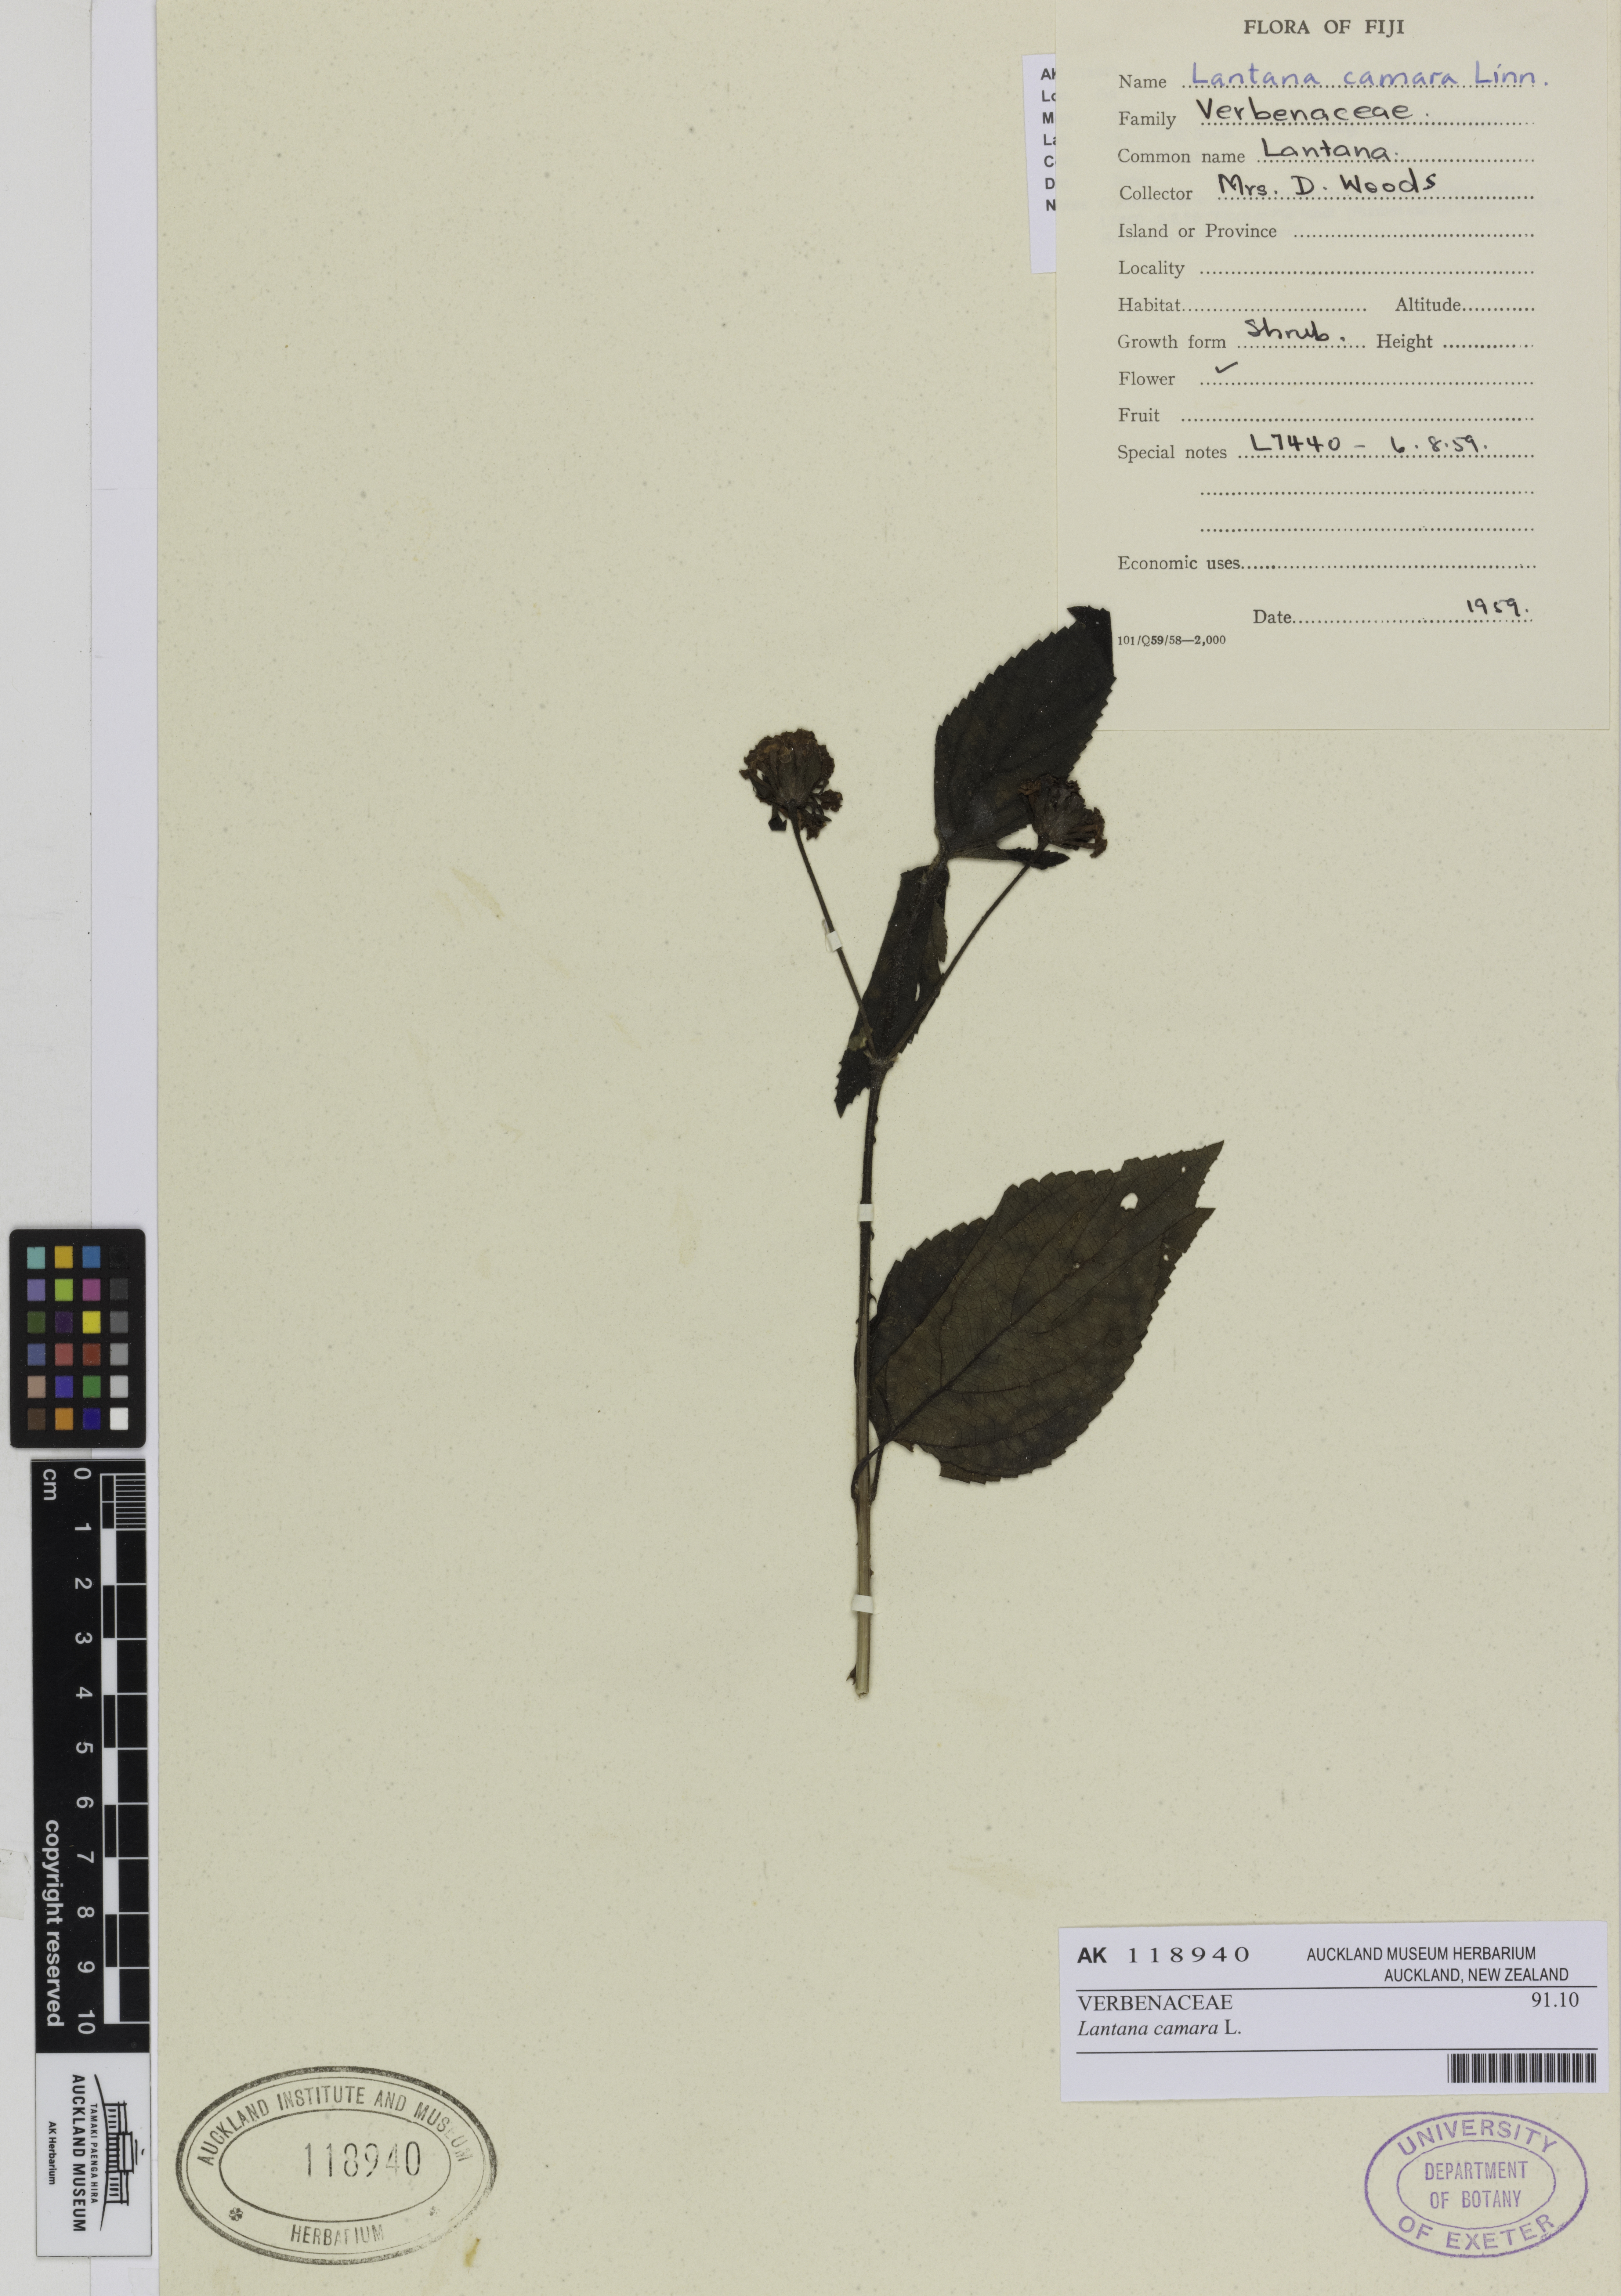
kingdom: Plantae
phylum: Tracheophyta
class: Magnoliopsida
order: Lamiales
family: Verbenaceae
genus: Lantana
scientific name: Lantana camara
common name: Lantana
